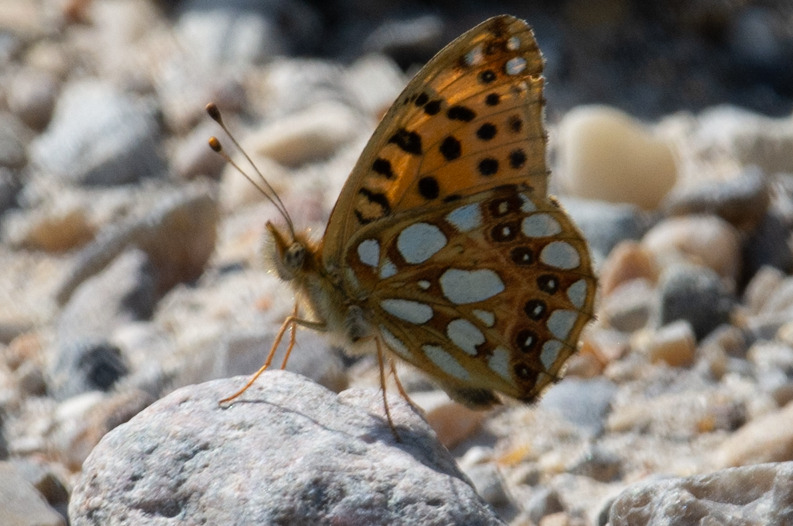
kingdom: Animalia
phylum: Arthropoda
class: Insecta
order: Lepidoptera
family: Nymphalidae
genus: Issoria
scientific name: Issoria lathonia
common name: Storplettet perlemorsommerfugl
